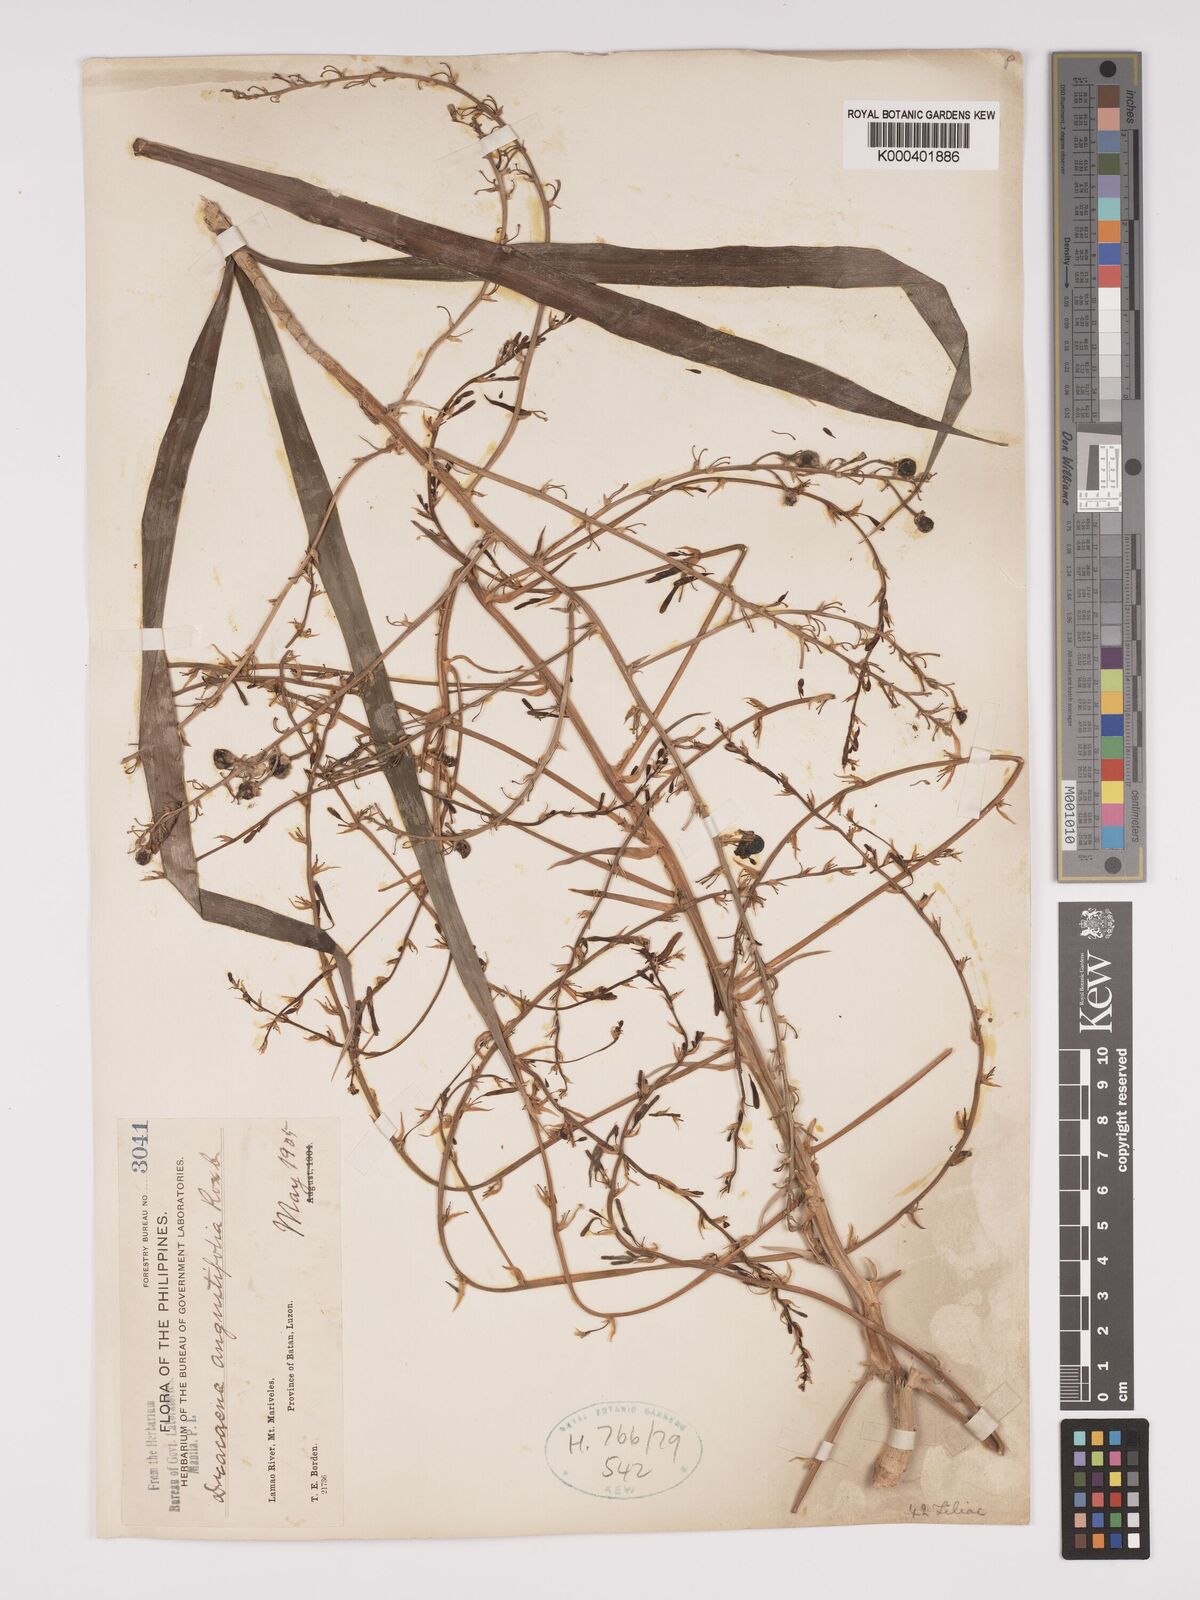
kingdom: Plantae
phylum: Tracheophyta
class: Liliopsida
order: Asparagales
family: Asparagaceae
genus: Dracaena
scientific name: Dracaena angustifolia
